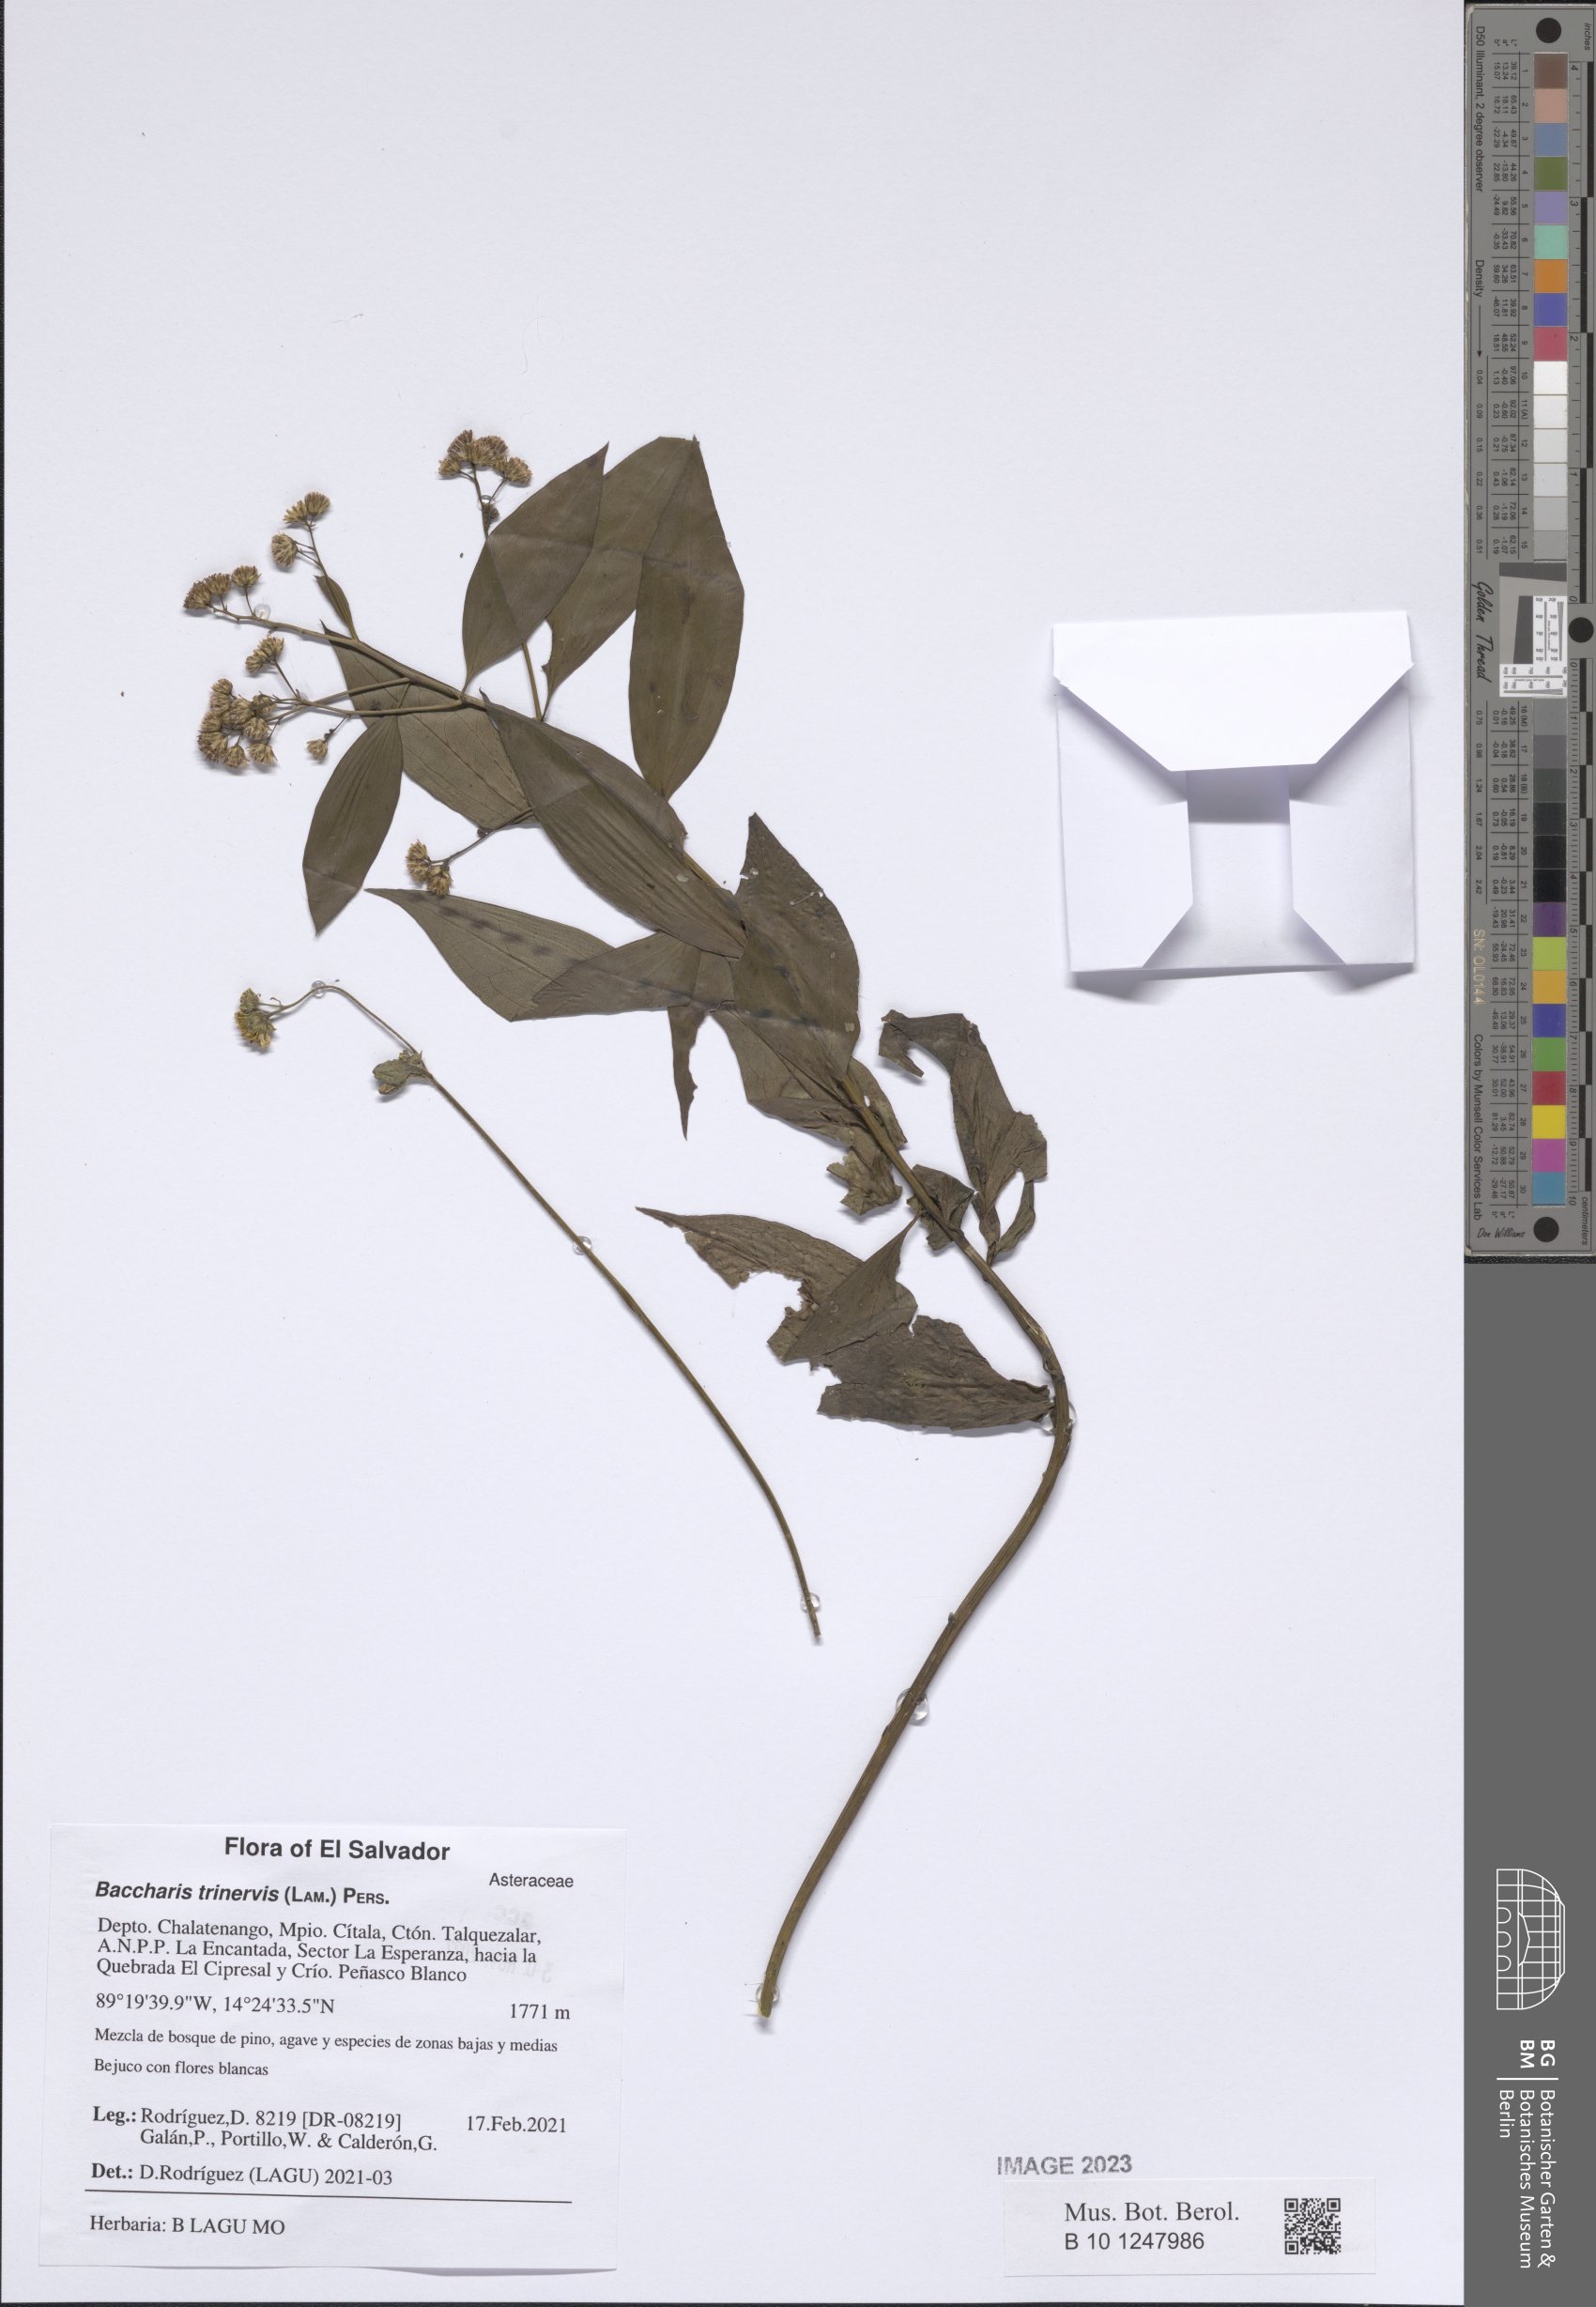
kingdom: Plantae
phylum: Tracheophyta
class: Magnoliopsida
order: Asterales
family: Asteraceae
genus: Baccharis
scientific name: Baccharis trinervis
